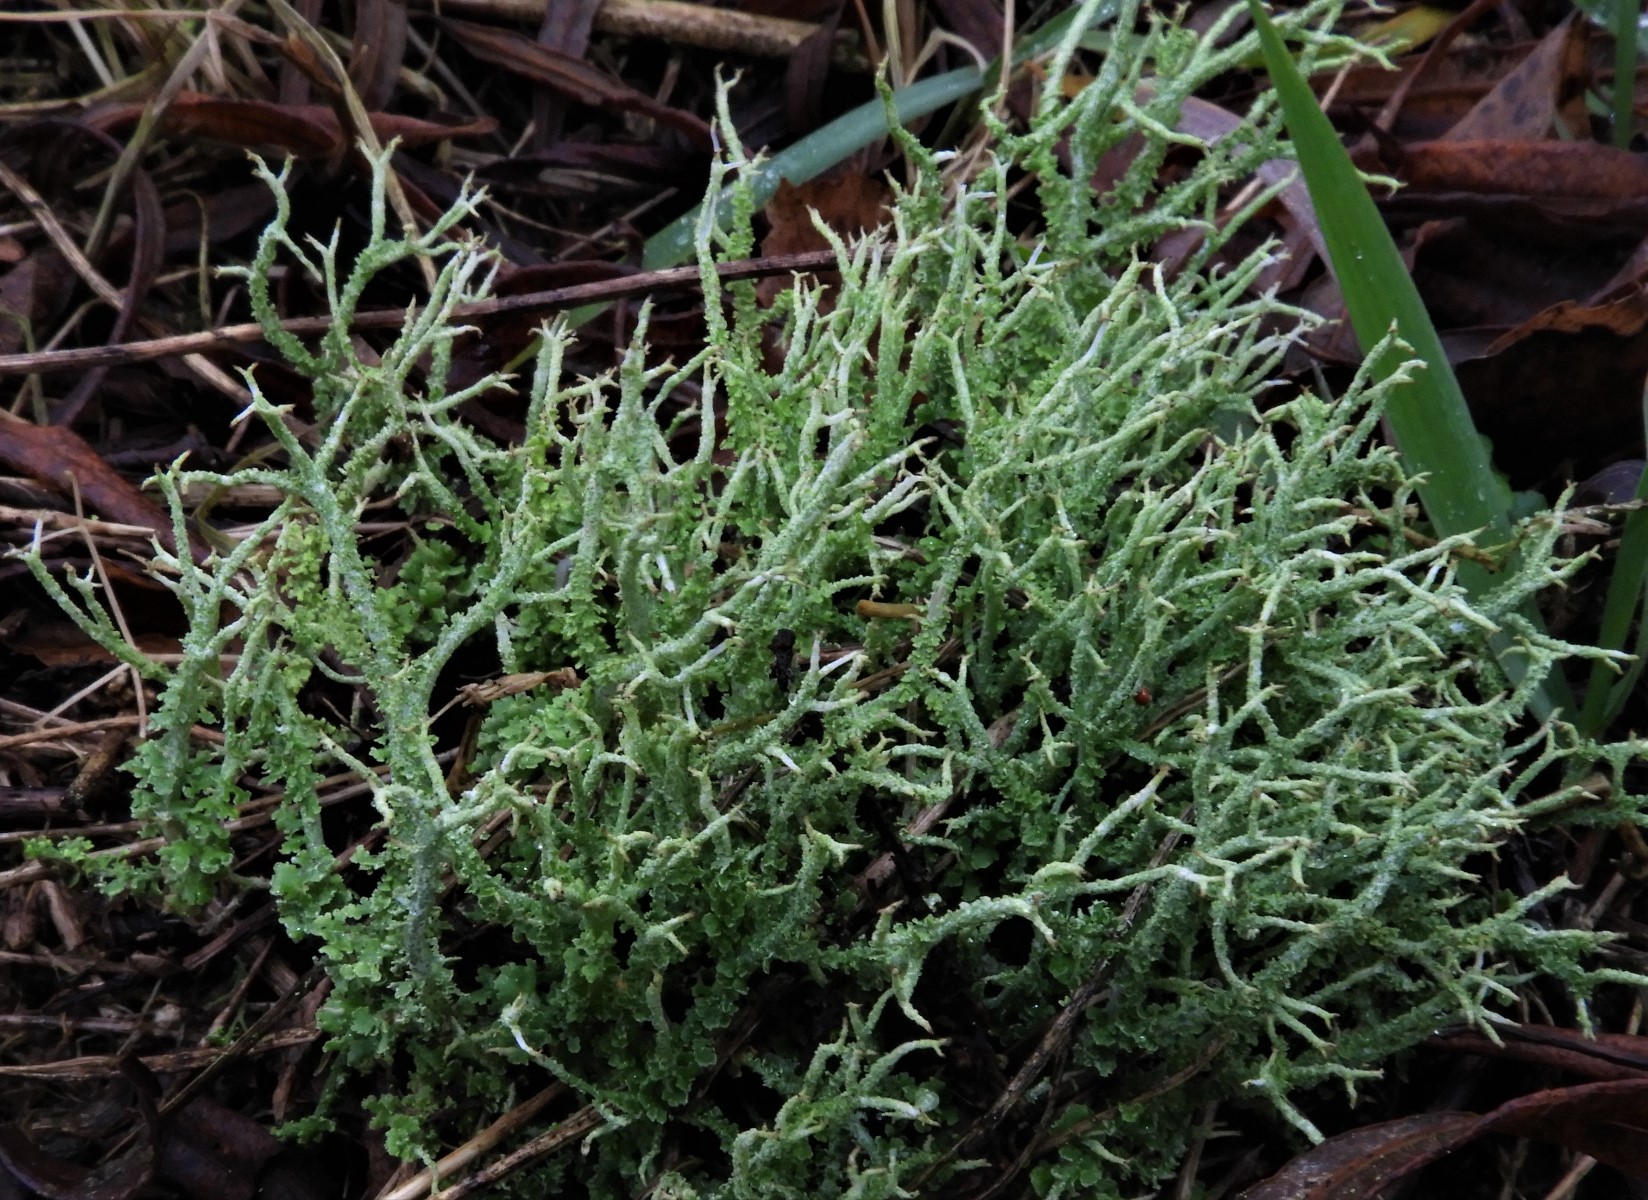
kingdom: Fungi
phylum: Ascomycota
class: Lecanoromycetes
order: Lecanorales
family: Cladoniaceae
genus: Cladonia
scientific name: Cladonia scabriuscula
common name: ru bægerlav
